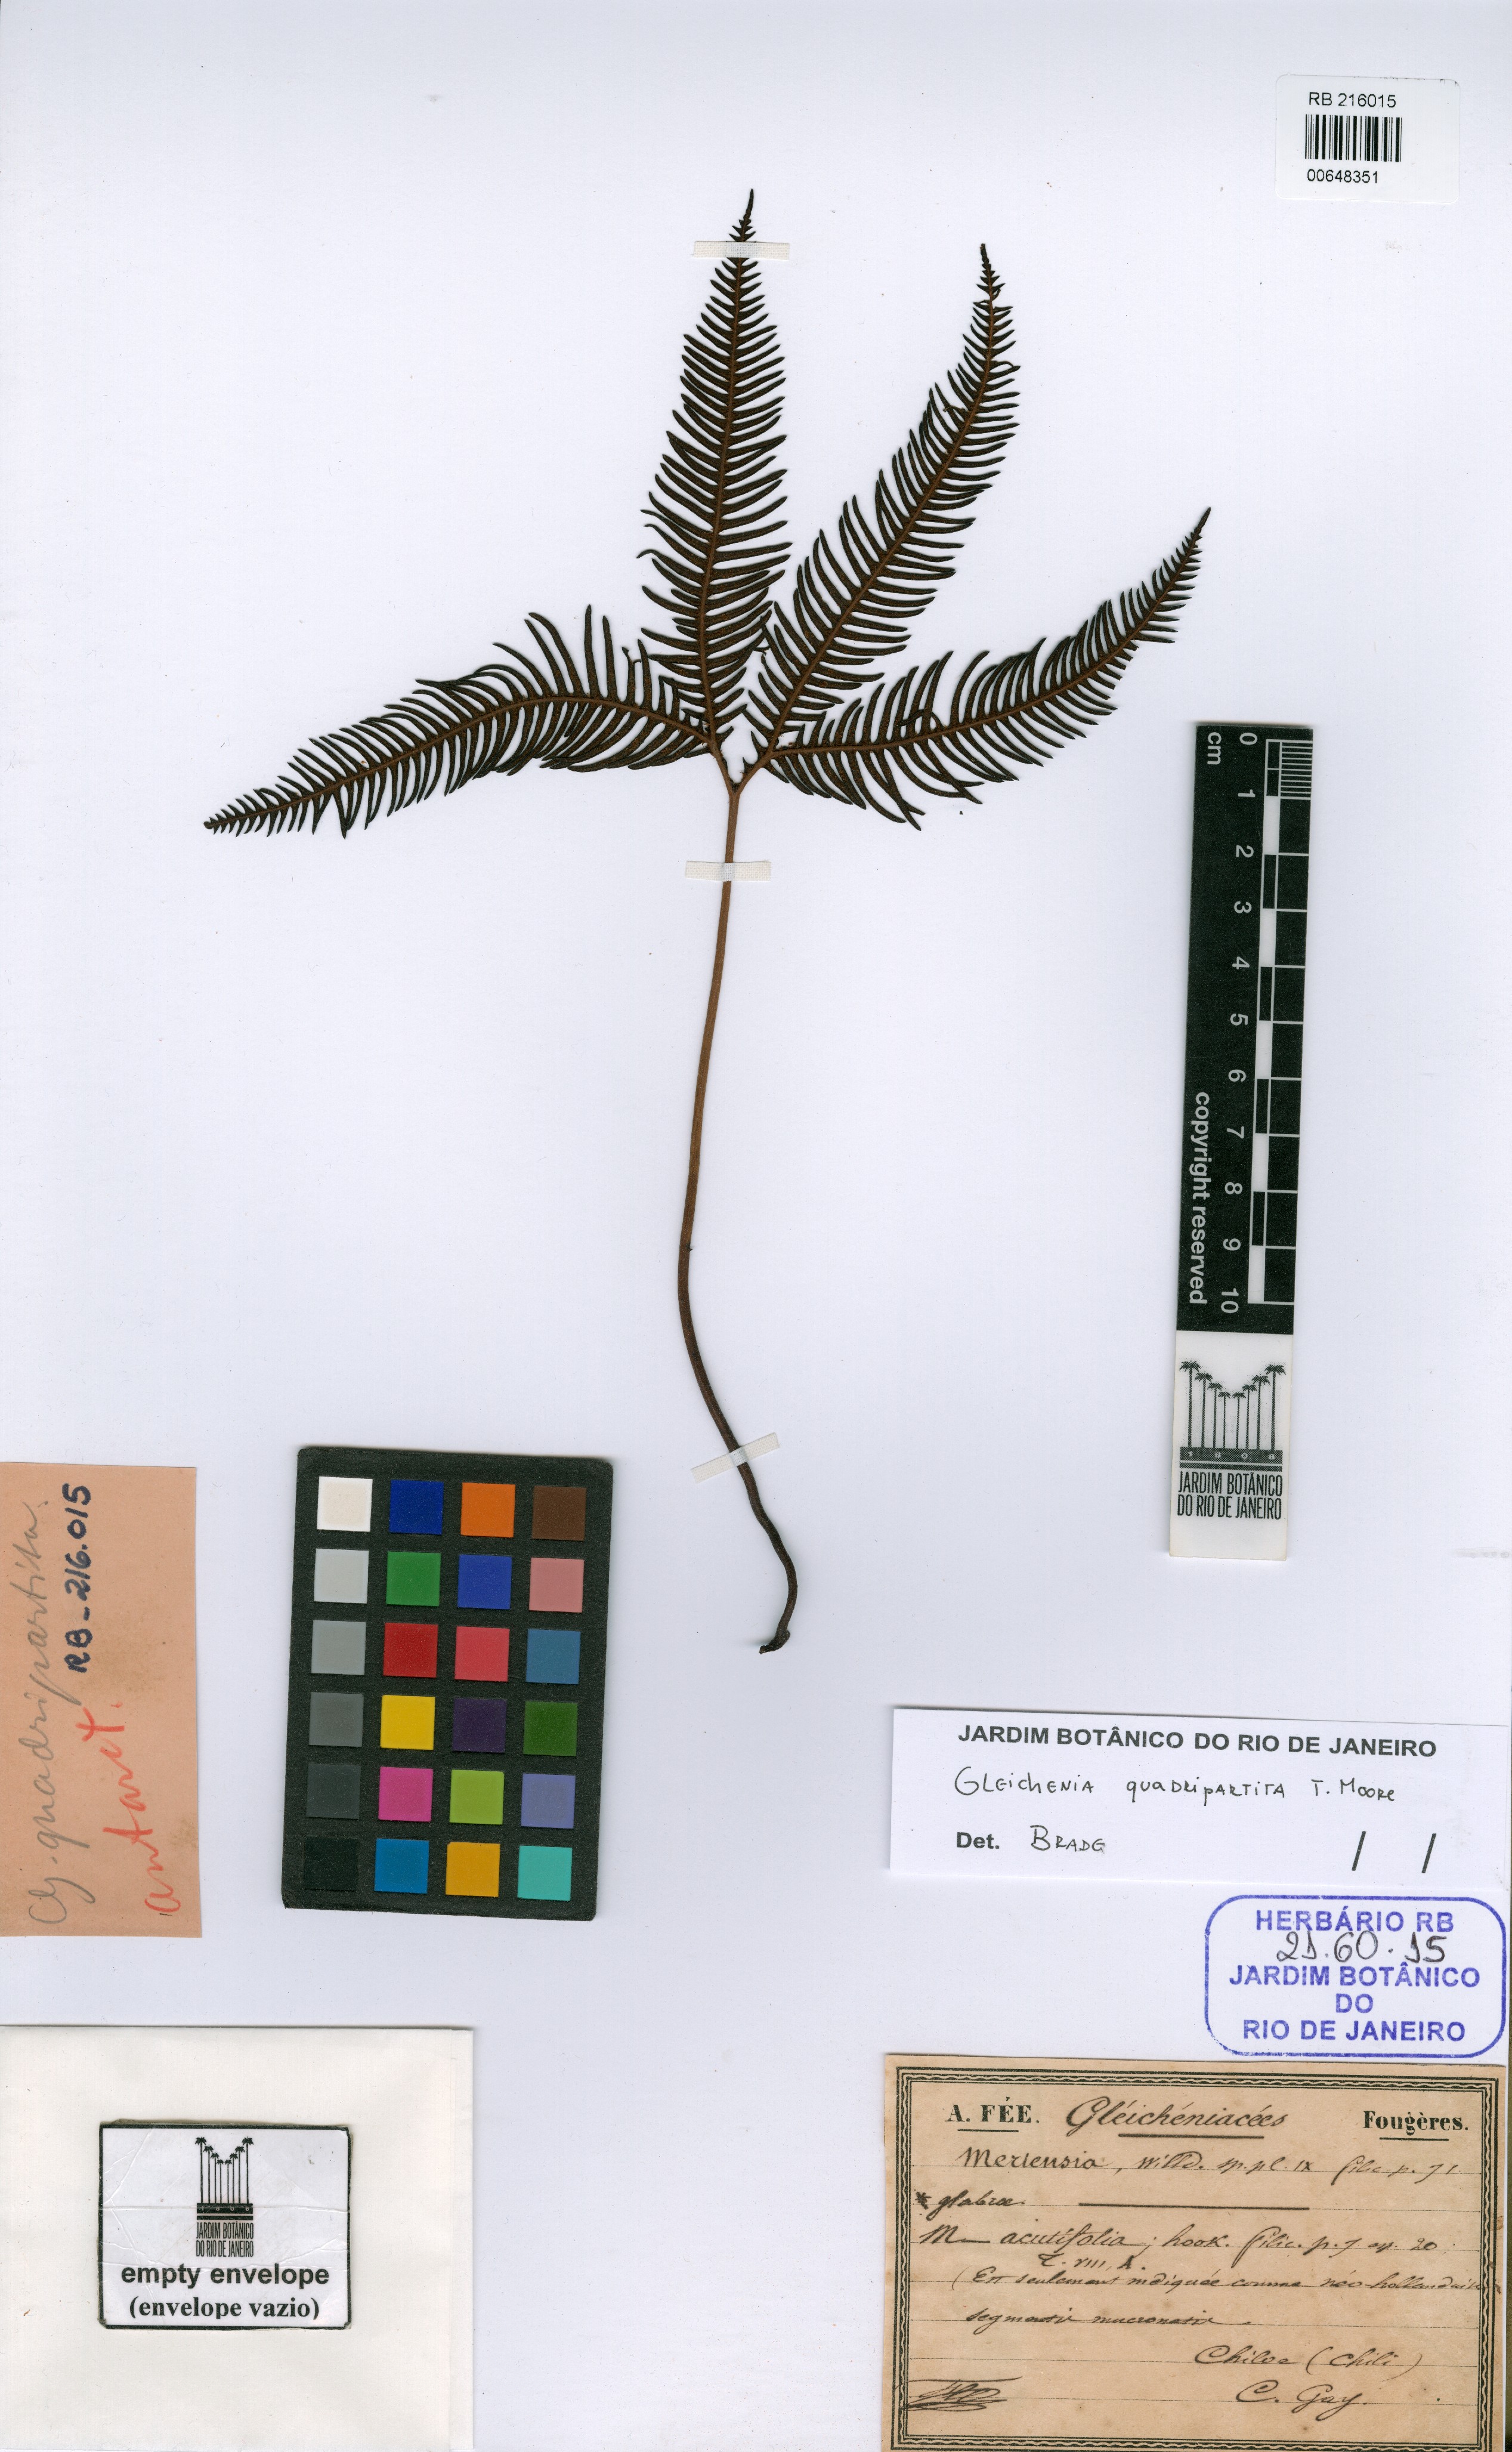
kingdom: Plantae
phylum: Tracheophyta
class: Polypodiopsida
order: Gleicheniales
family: Gleicheniaceae
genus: Sticherus
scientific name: Sticherus quadripartitus
